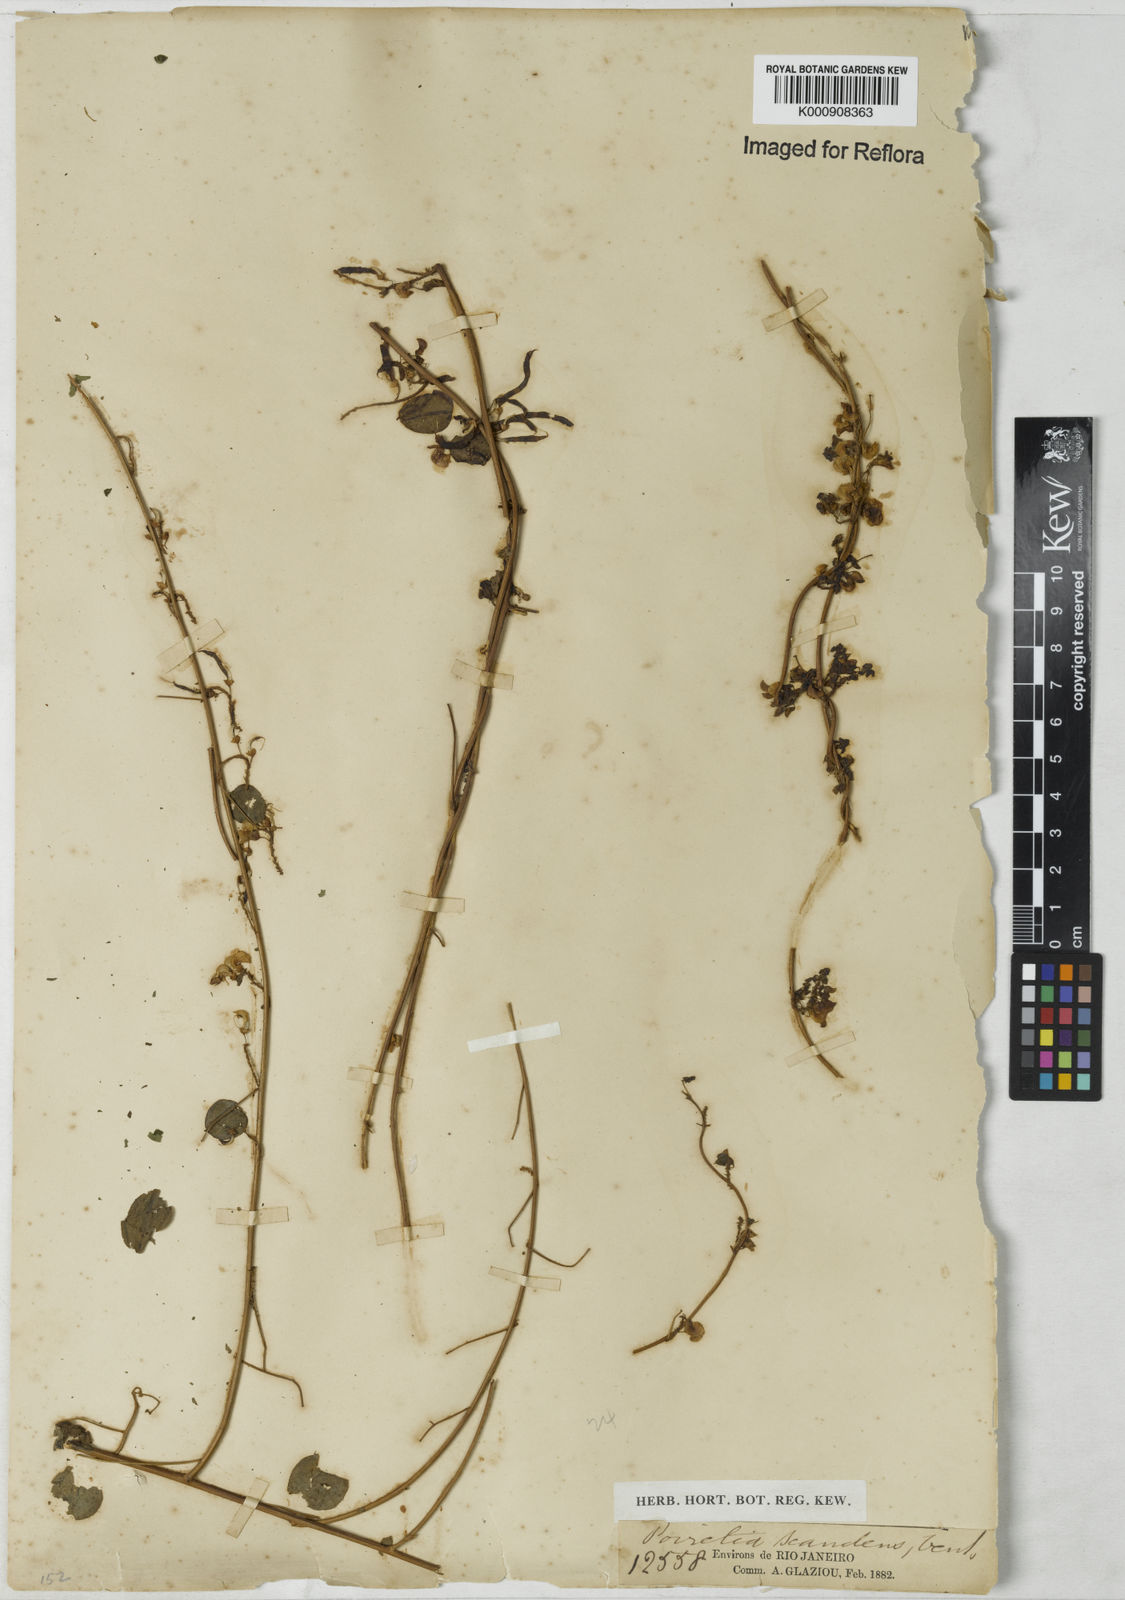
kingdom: Plantae
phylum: Tracheophyta
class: Magnoliopsida
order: Fabales
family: Fabaceae
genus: Poiretia
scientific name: Poiretia punctata
